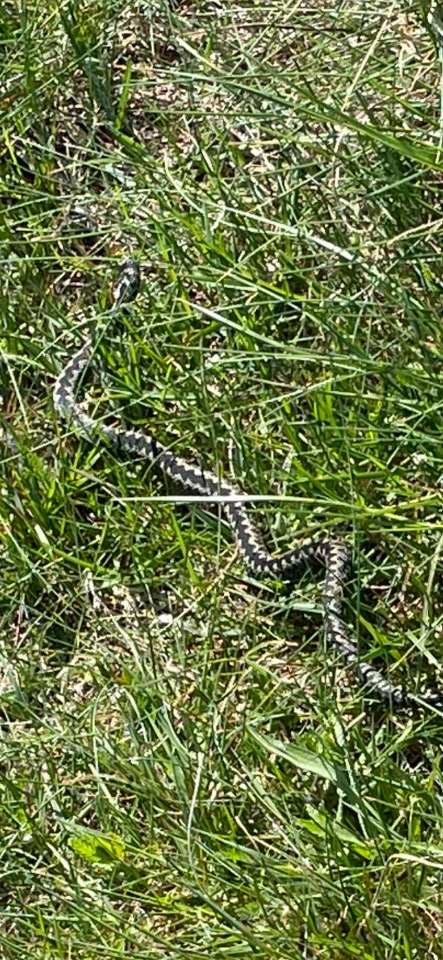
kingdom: Animalia
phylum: Chordata
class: Squamata
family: Viperidae
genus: Vipera
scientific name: Vipera berus
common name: Hugorm
